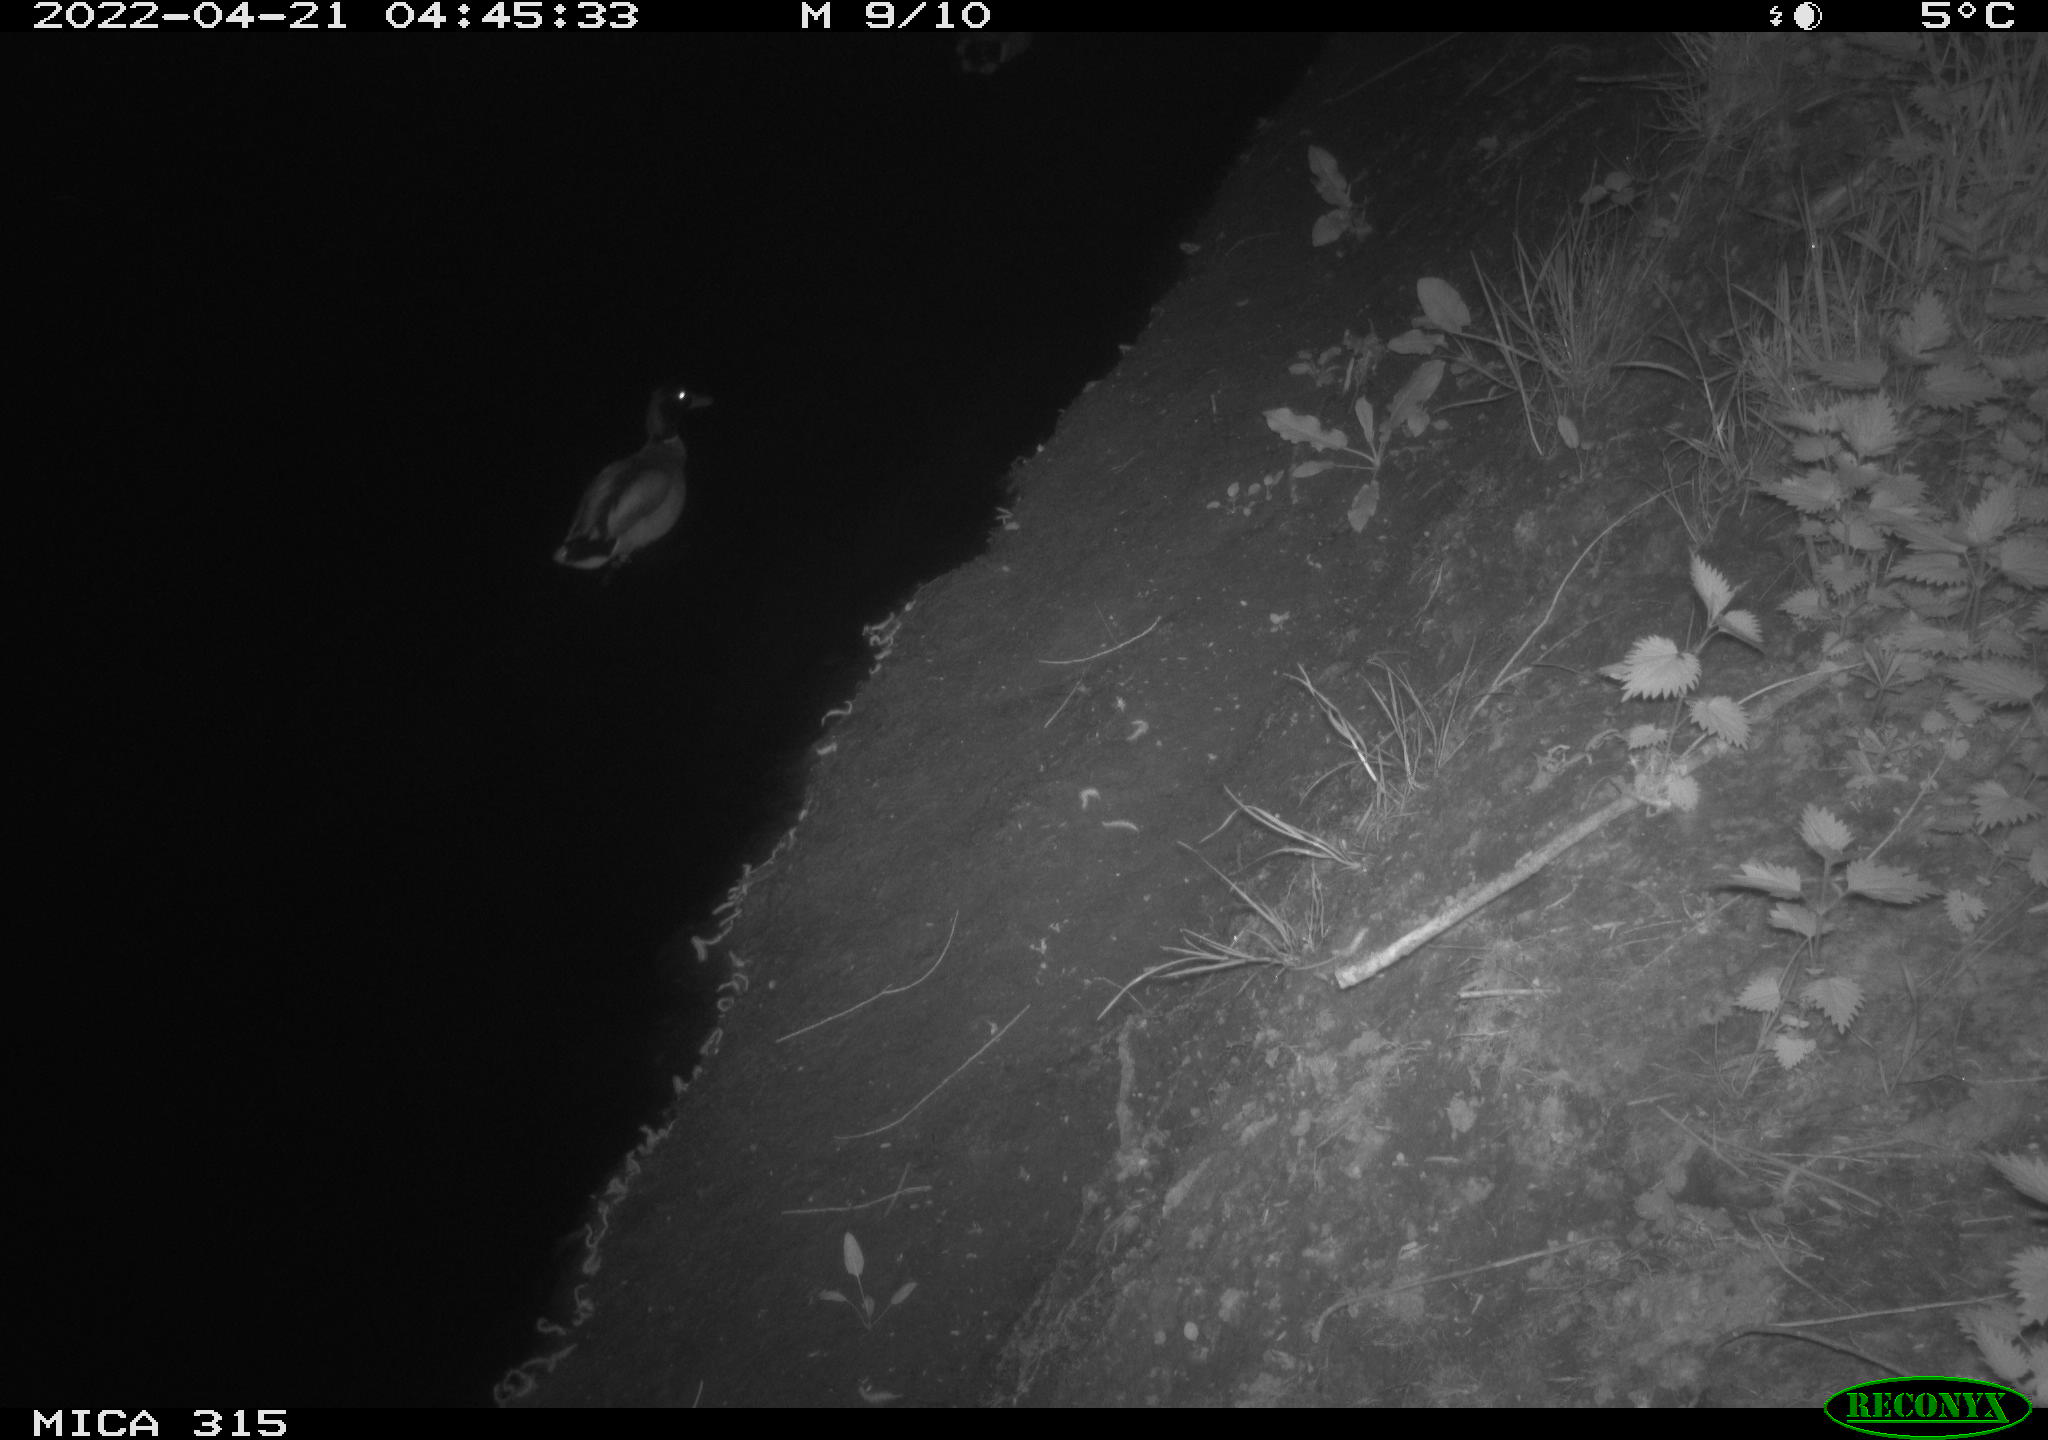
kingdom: Animalia
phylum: Chordata
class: Aves
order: Anseriformes
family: Anatidae
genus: Anas
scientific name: Anas platyrhynchos
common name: Mallard
